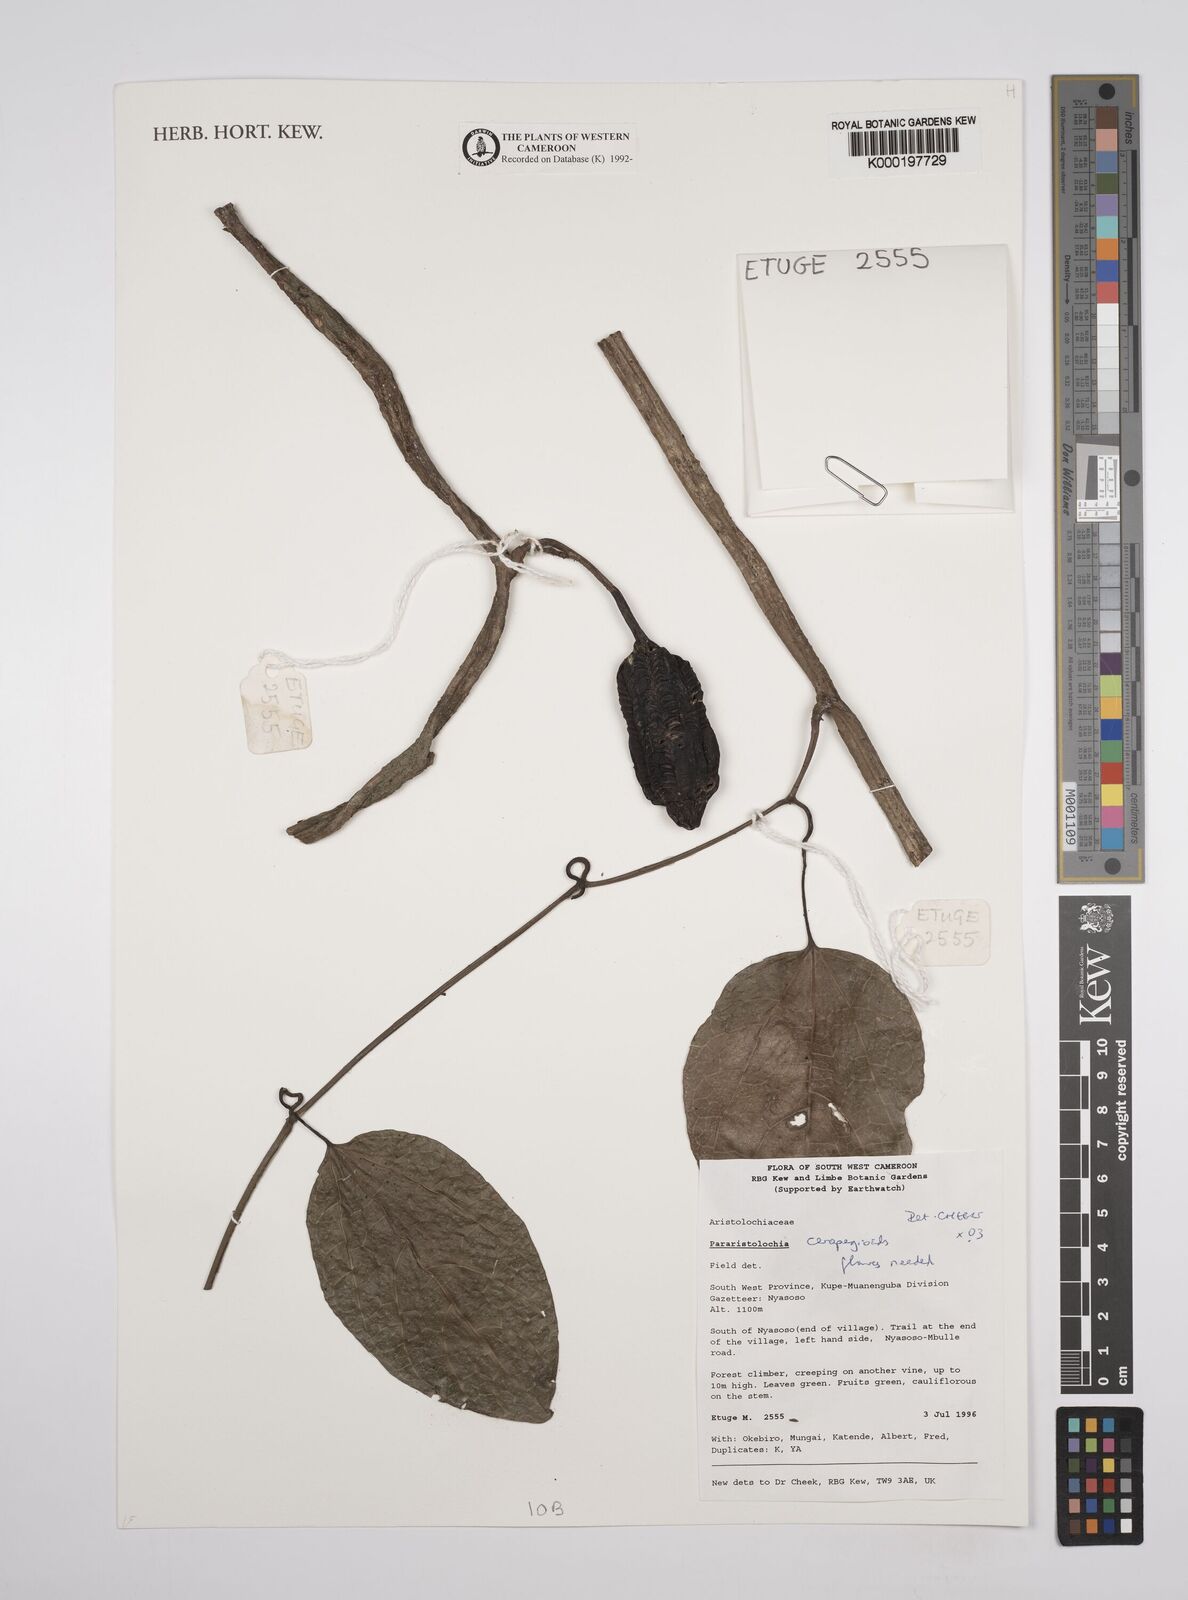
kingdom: Plantae
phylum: Tracheophyta
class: Magnoliopsida
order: Piperales
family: Aristolochiaceae
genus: Aristolochia
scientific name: Aristolochia ceropegioides
